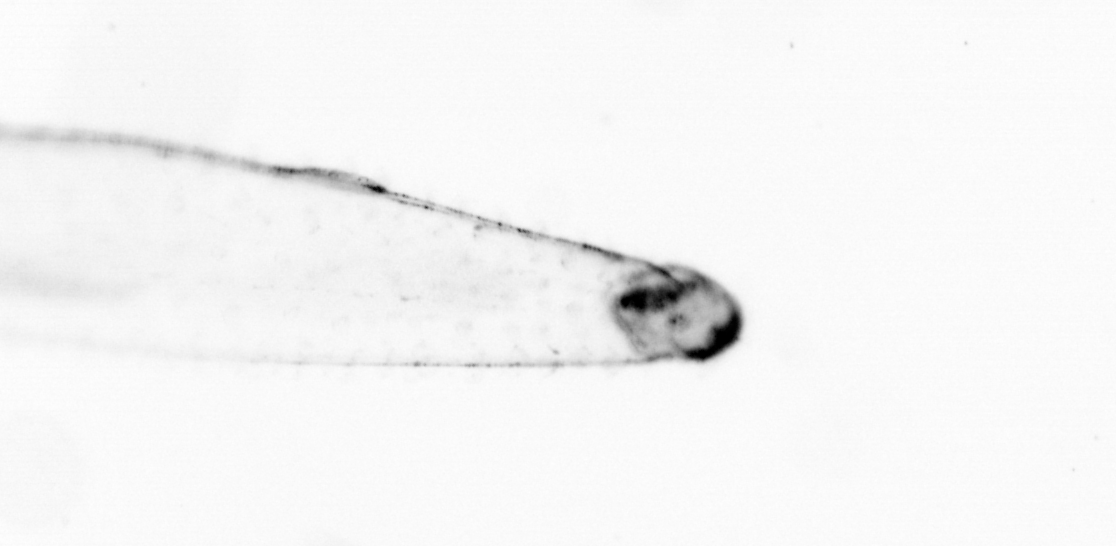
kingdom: Animalia
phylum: Chaetognatha
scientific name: Chaetognatha
